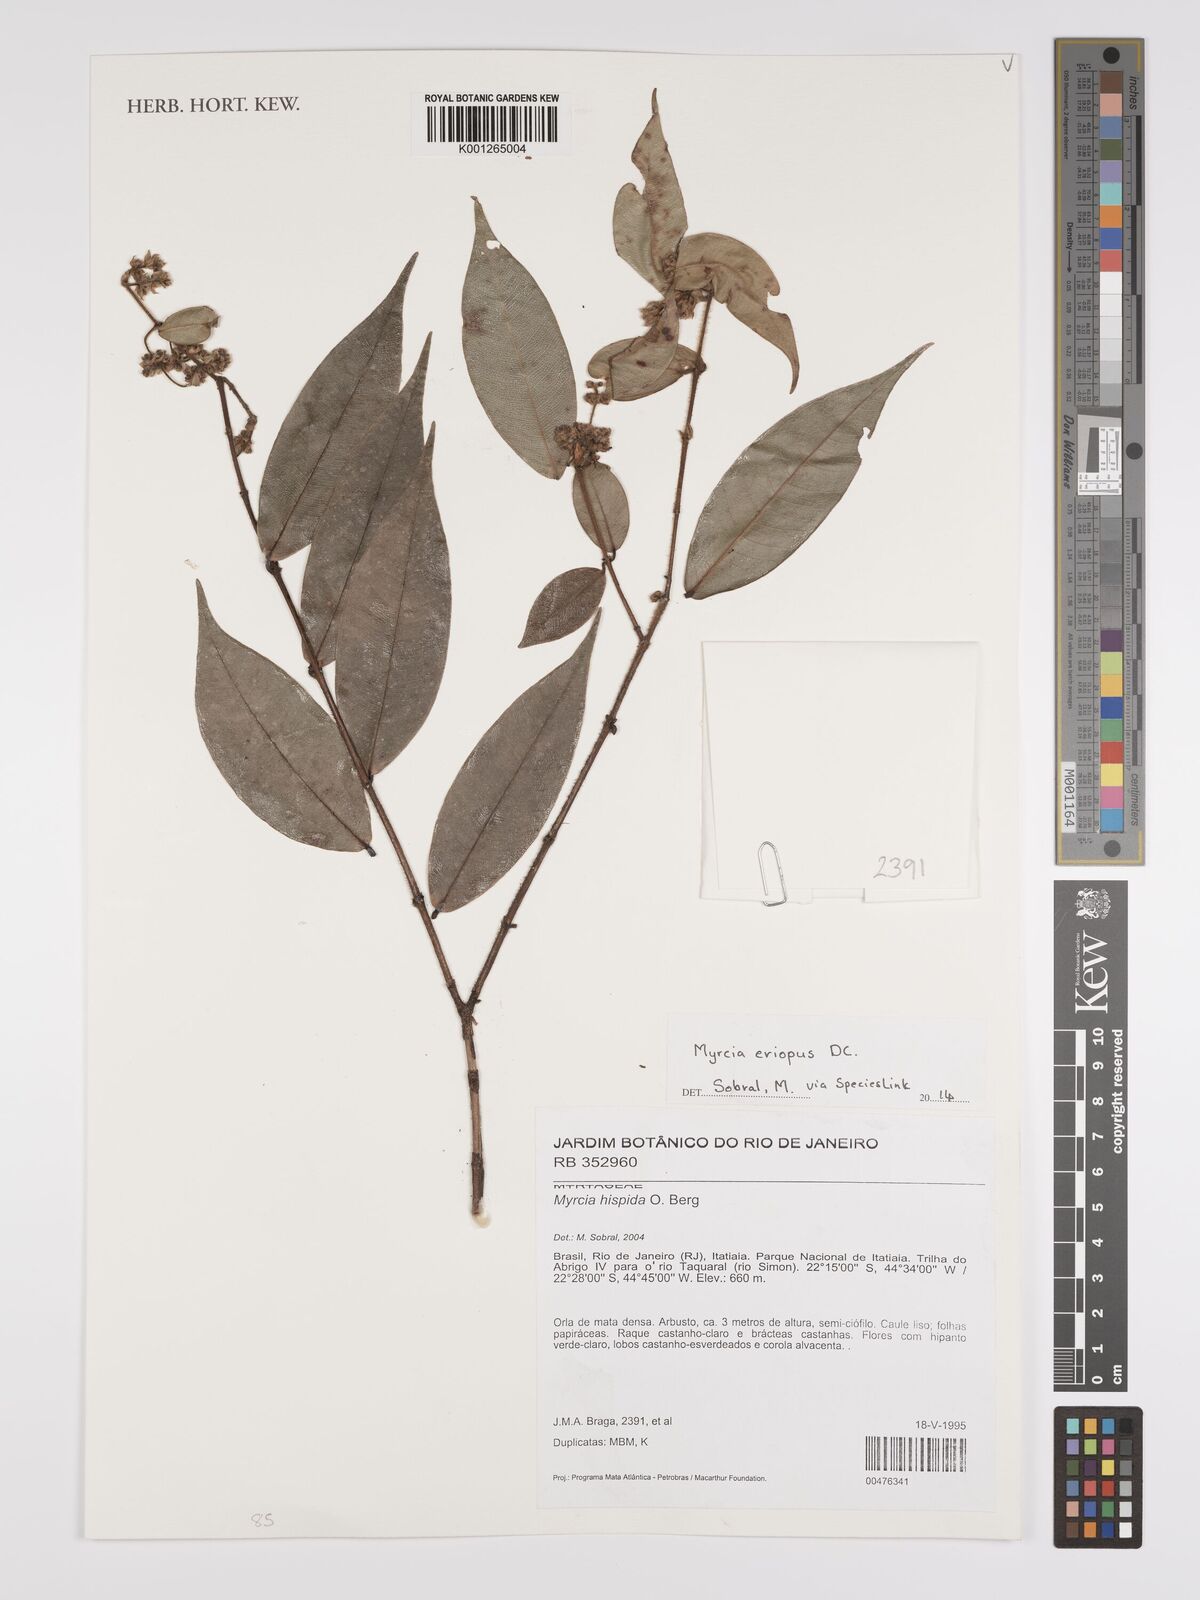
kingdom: Plantae
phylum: Tracheophyta
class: Magnoliopsida
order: Myrtales
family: Myrtaceae
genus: Myrcia
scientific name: Myrcia eriopus
